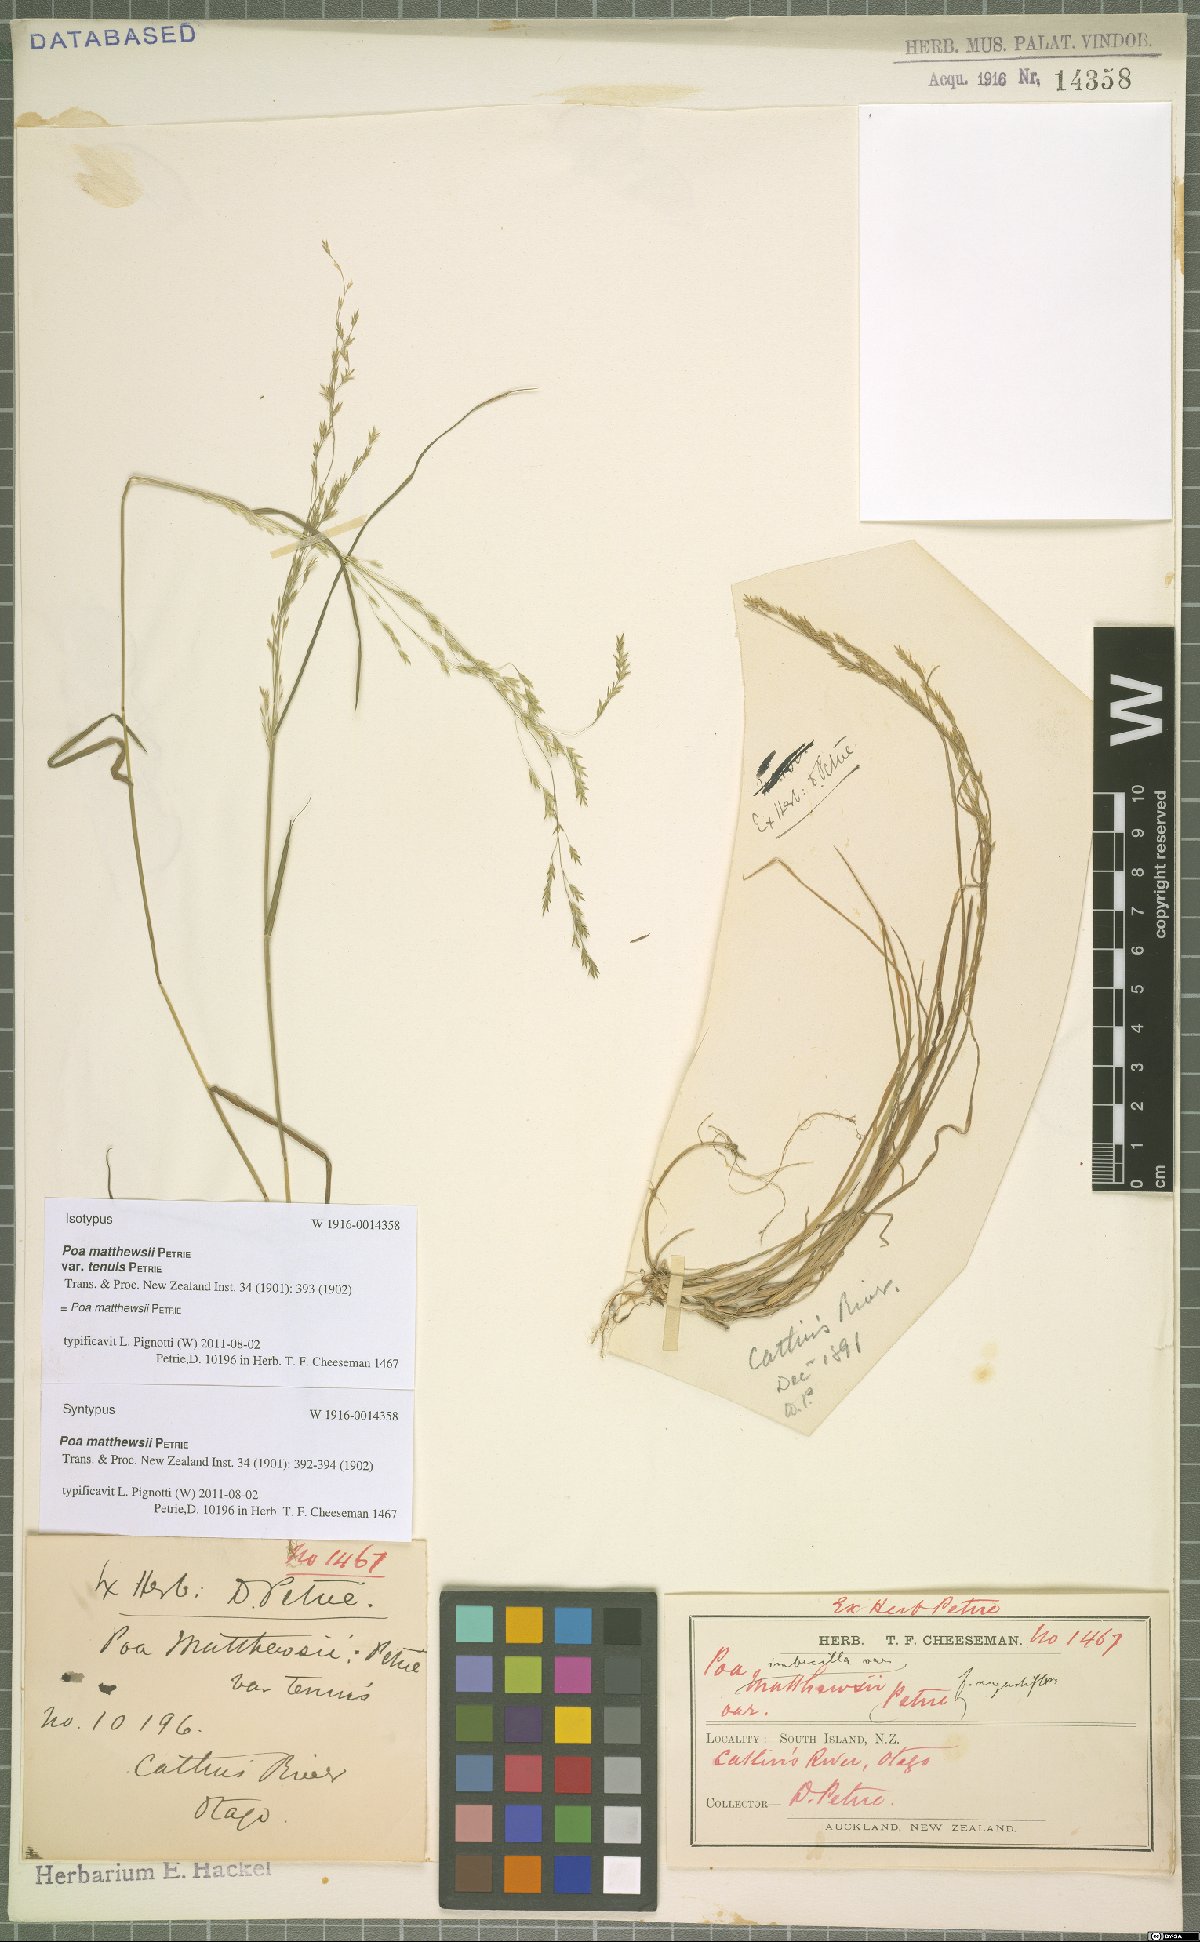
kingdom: Plantae
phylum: Tracheophyta
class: Liliopsida
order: Poales
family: Poaceae
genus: Poa
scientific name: Poa matthewsii
